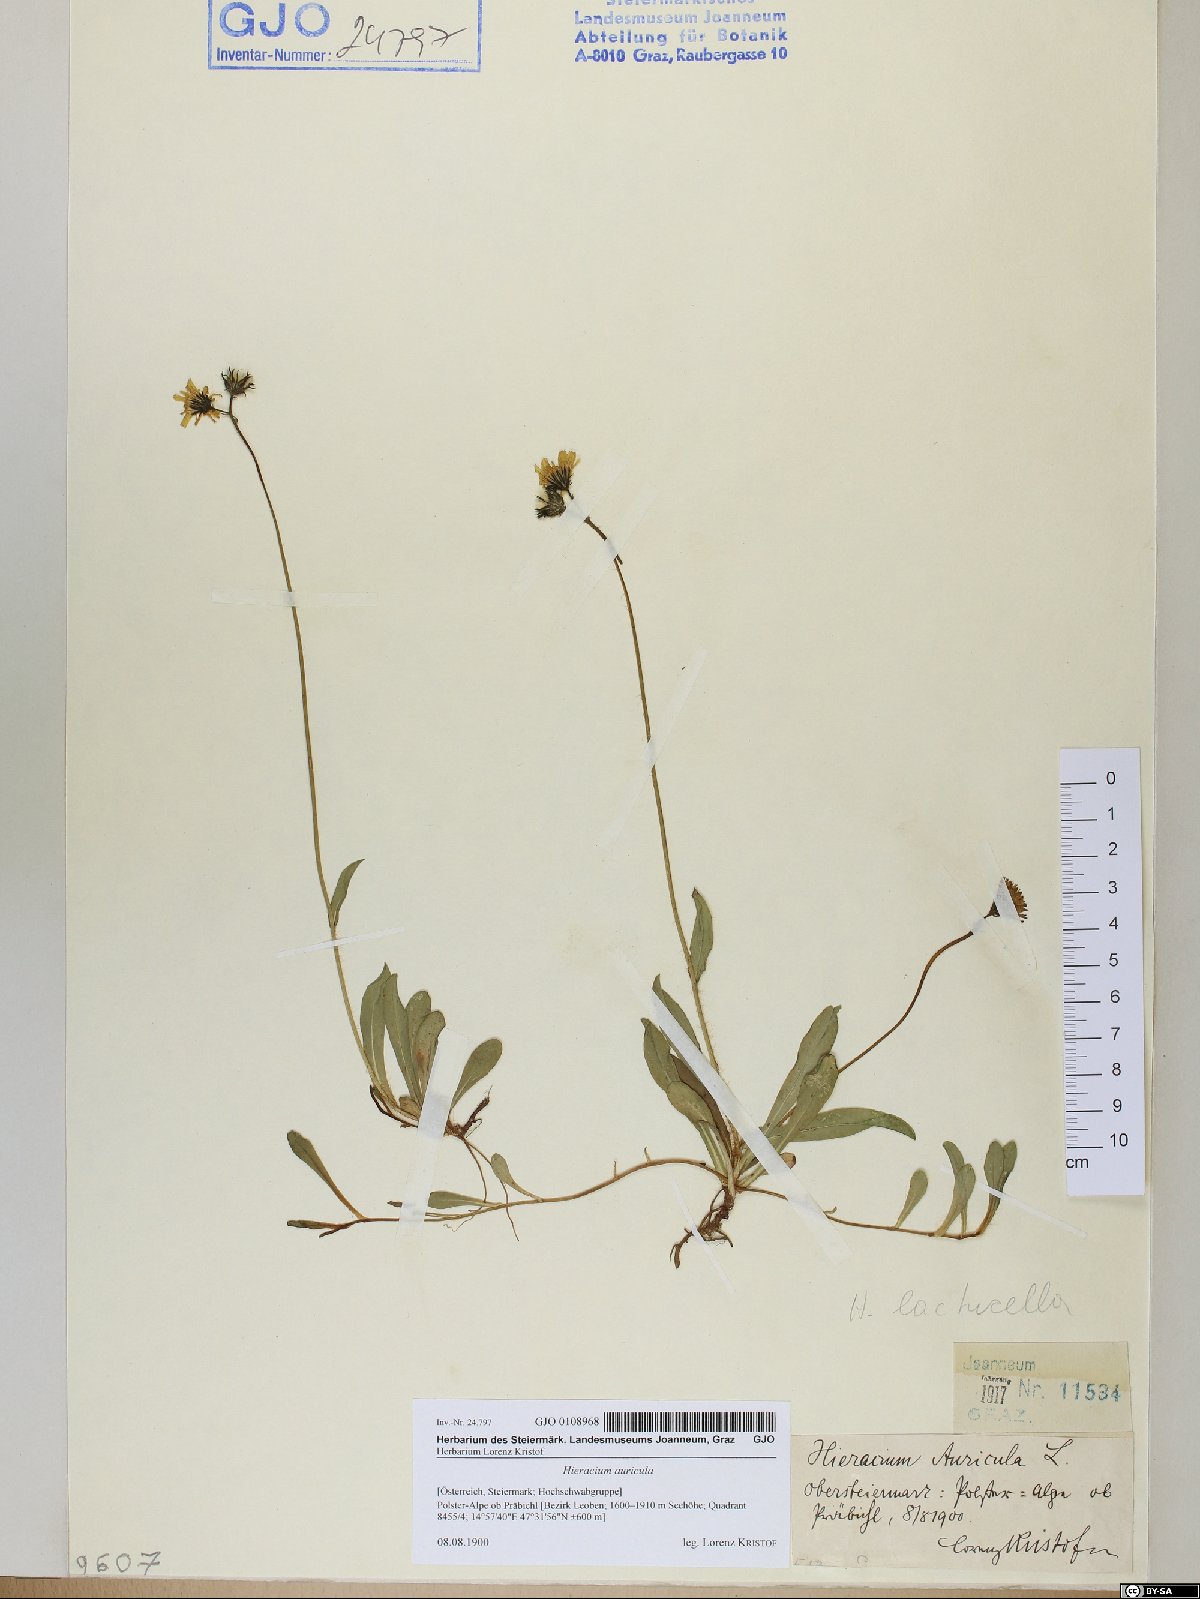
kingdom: Plantae
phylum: Tracheophyta
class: Magnoliopsida
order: Asterales
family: Asteraceae
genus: Hieracium
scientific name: Hieracium auricula
